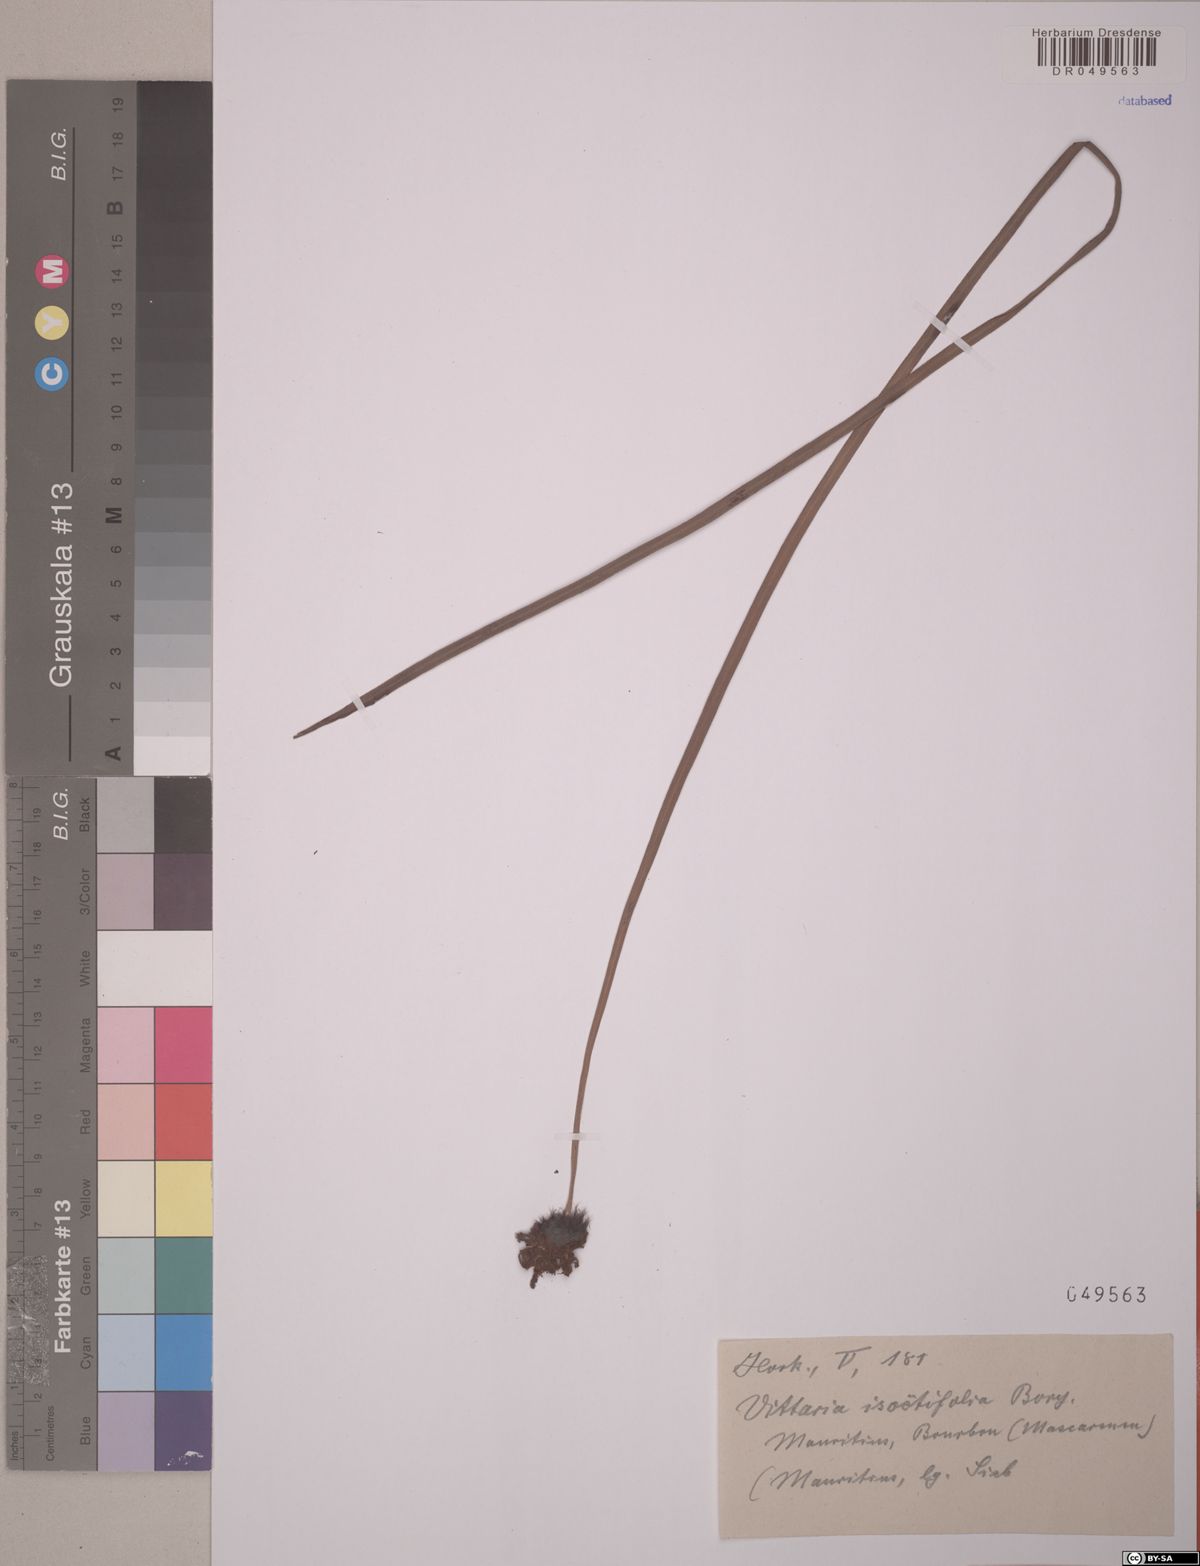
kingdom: Plantae
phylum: Tracheophyta
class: Polypodiopsida
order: Polypodiales
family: Pteridaceae
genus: Vittaria
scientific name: Vittaria isoetifolia
